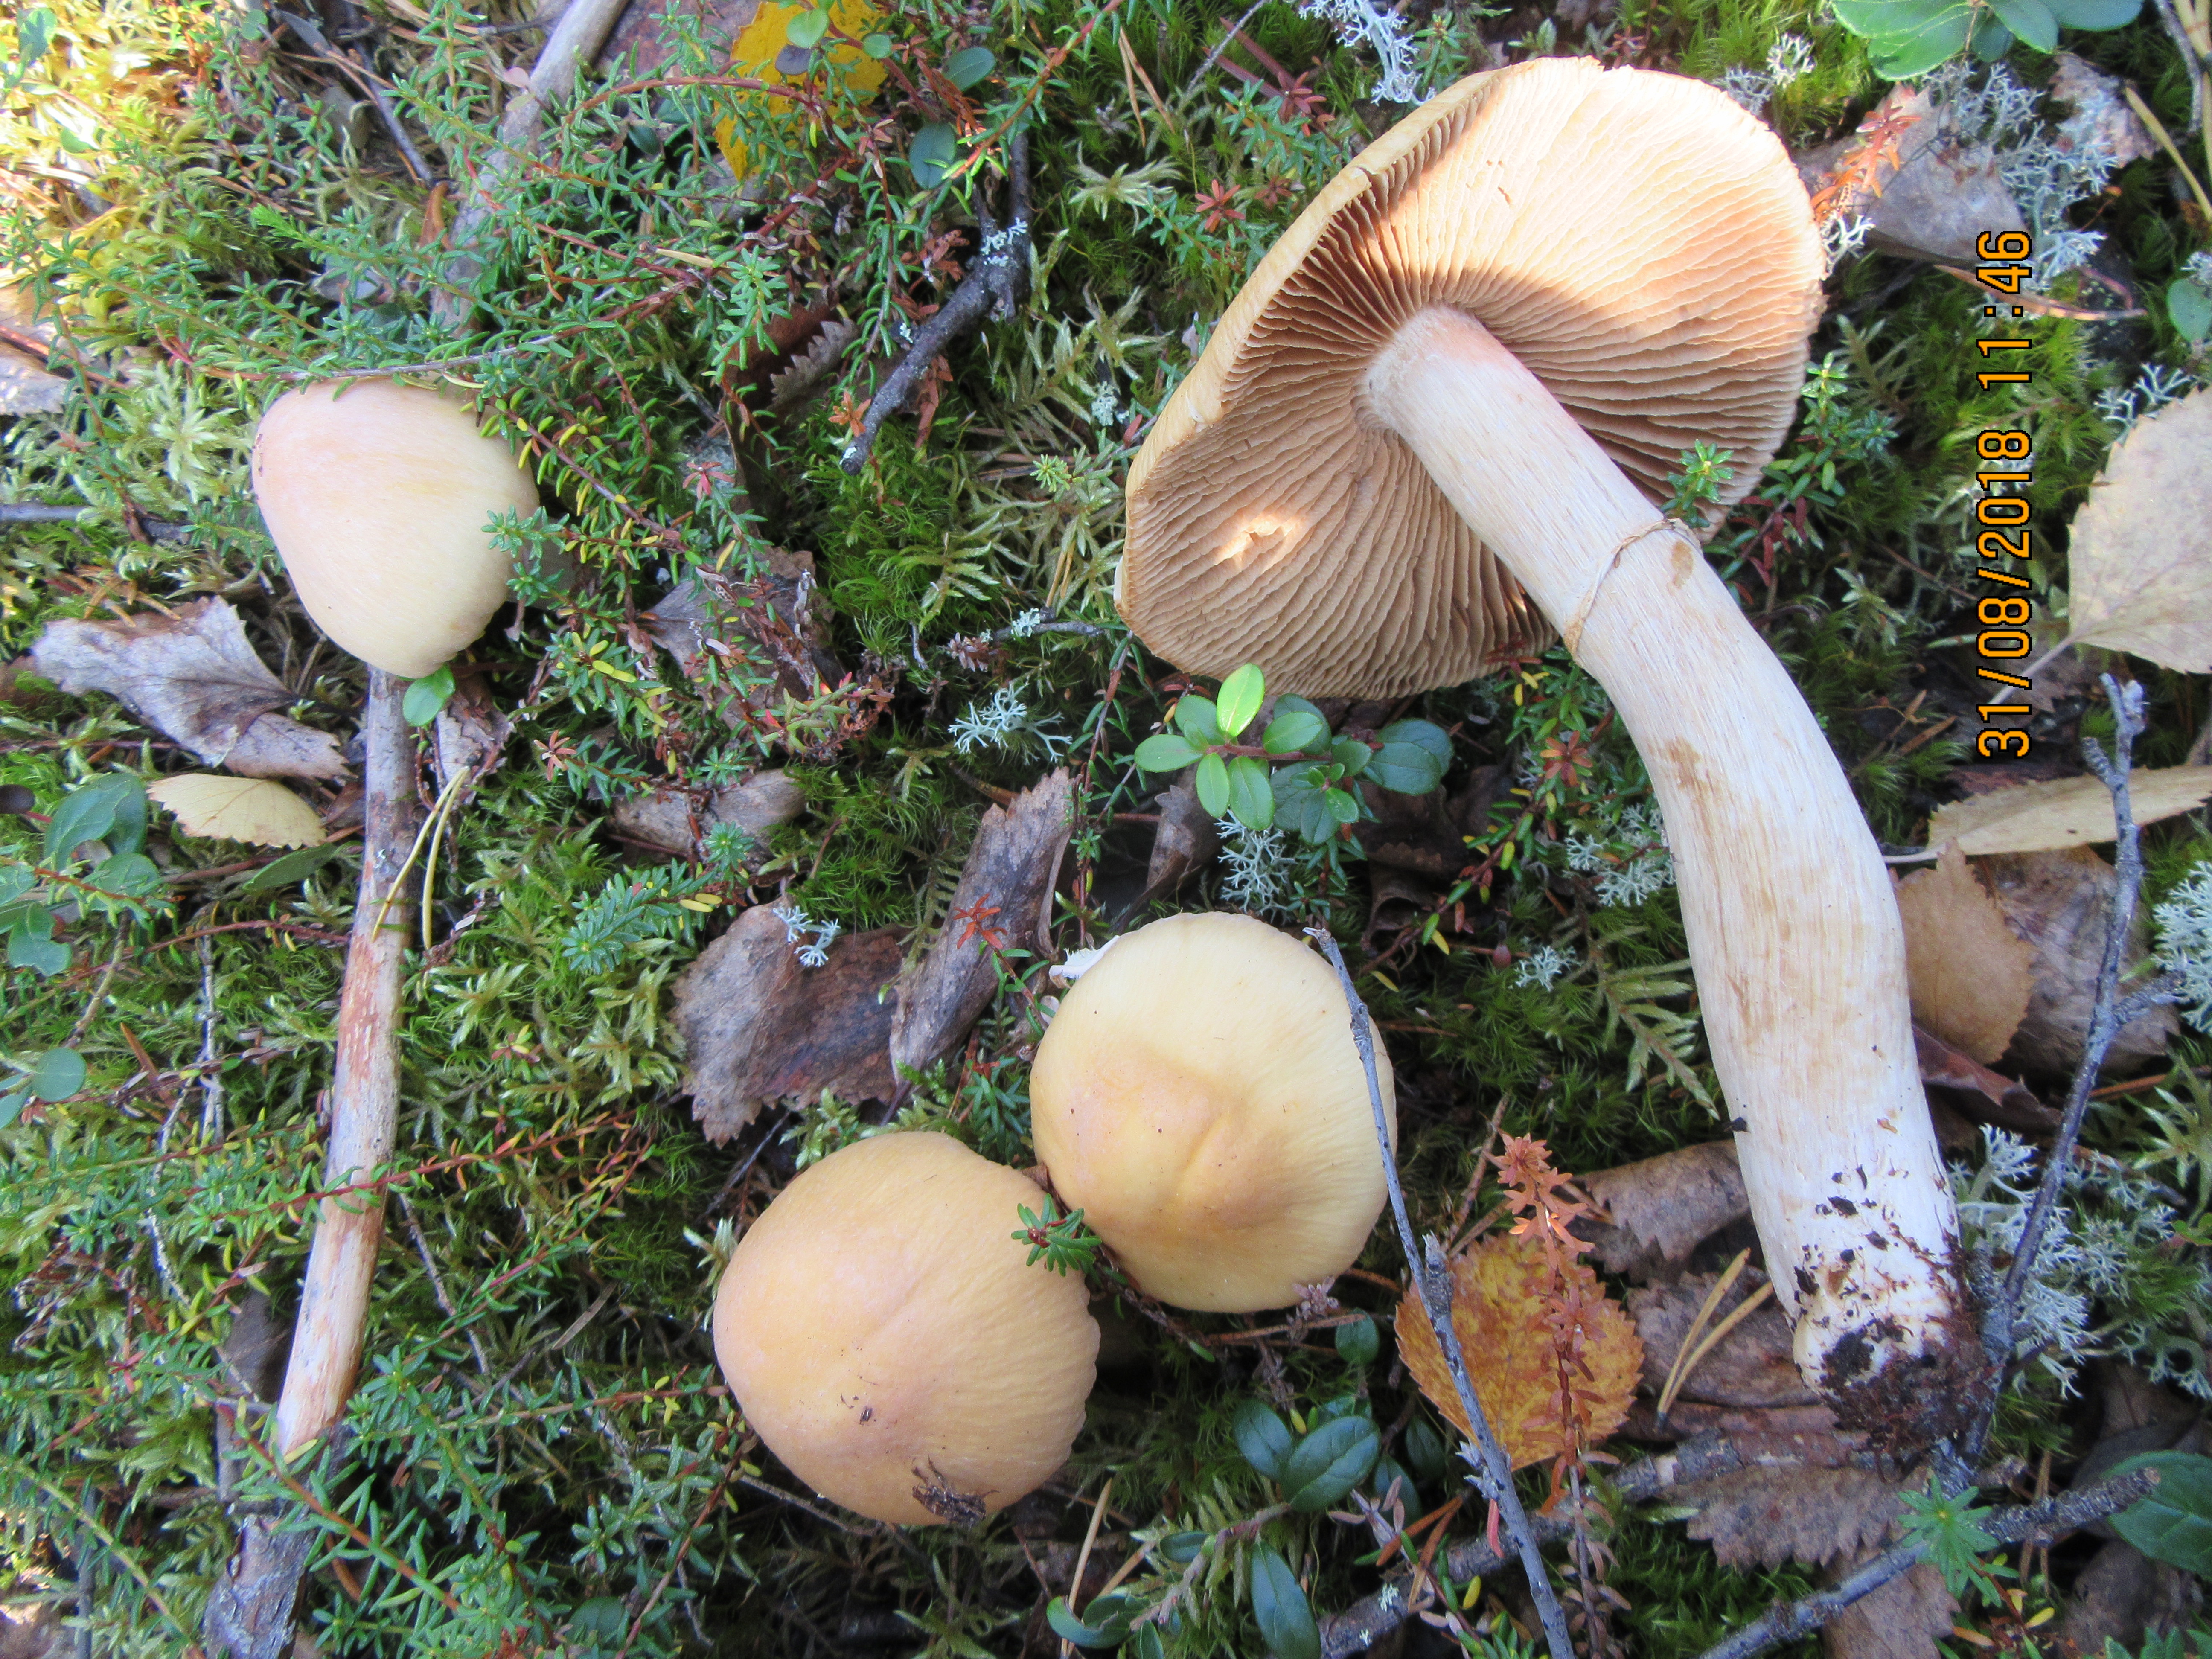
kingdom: Fungi
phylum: Basidiomycota
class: Agaricomycetes
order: Agaricales
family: Cortinariaceae
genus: Cortinarius
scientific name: Cortinarius caperatus
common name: The gypsy
